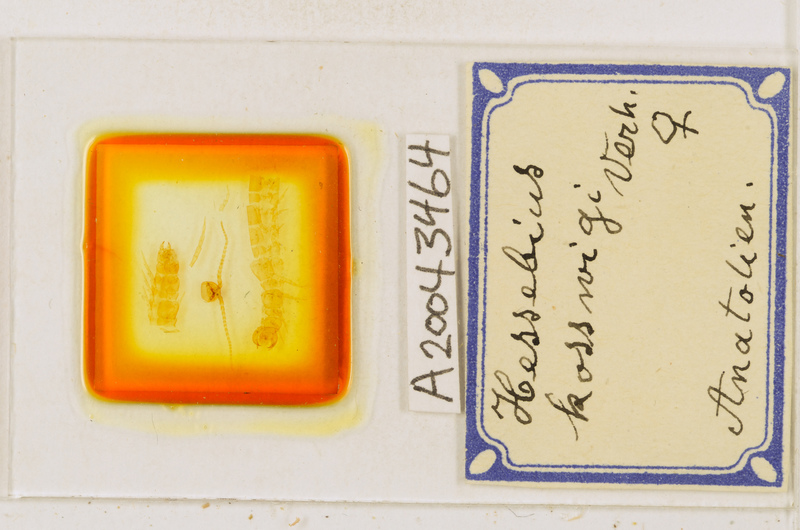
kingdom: Animalia
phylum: Arthropoda
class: Chilopoda
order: Lithobiomorpha
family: Lithobiidae
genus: Hessebius
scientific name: Hessebius barbipes
